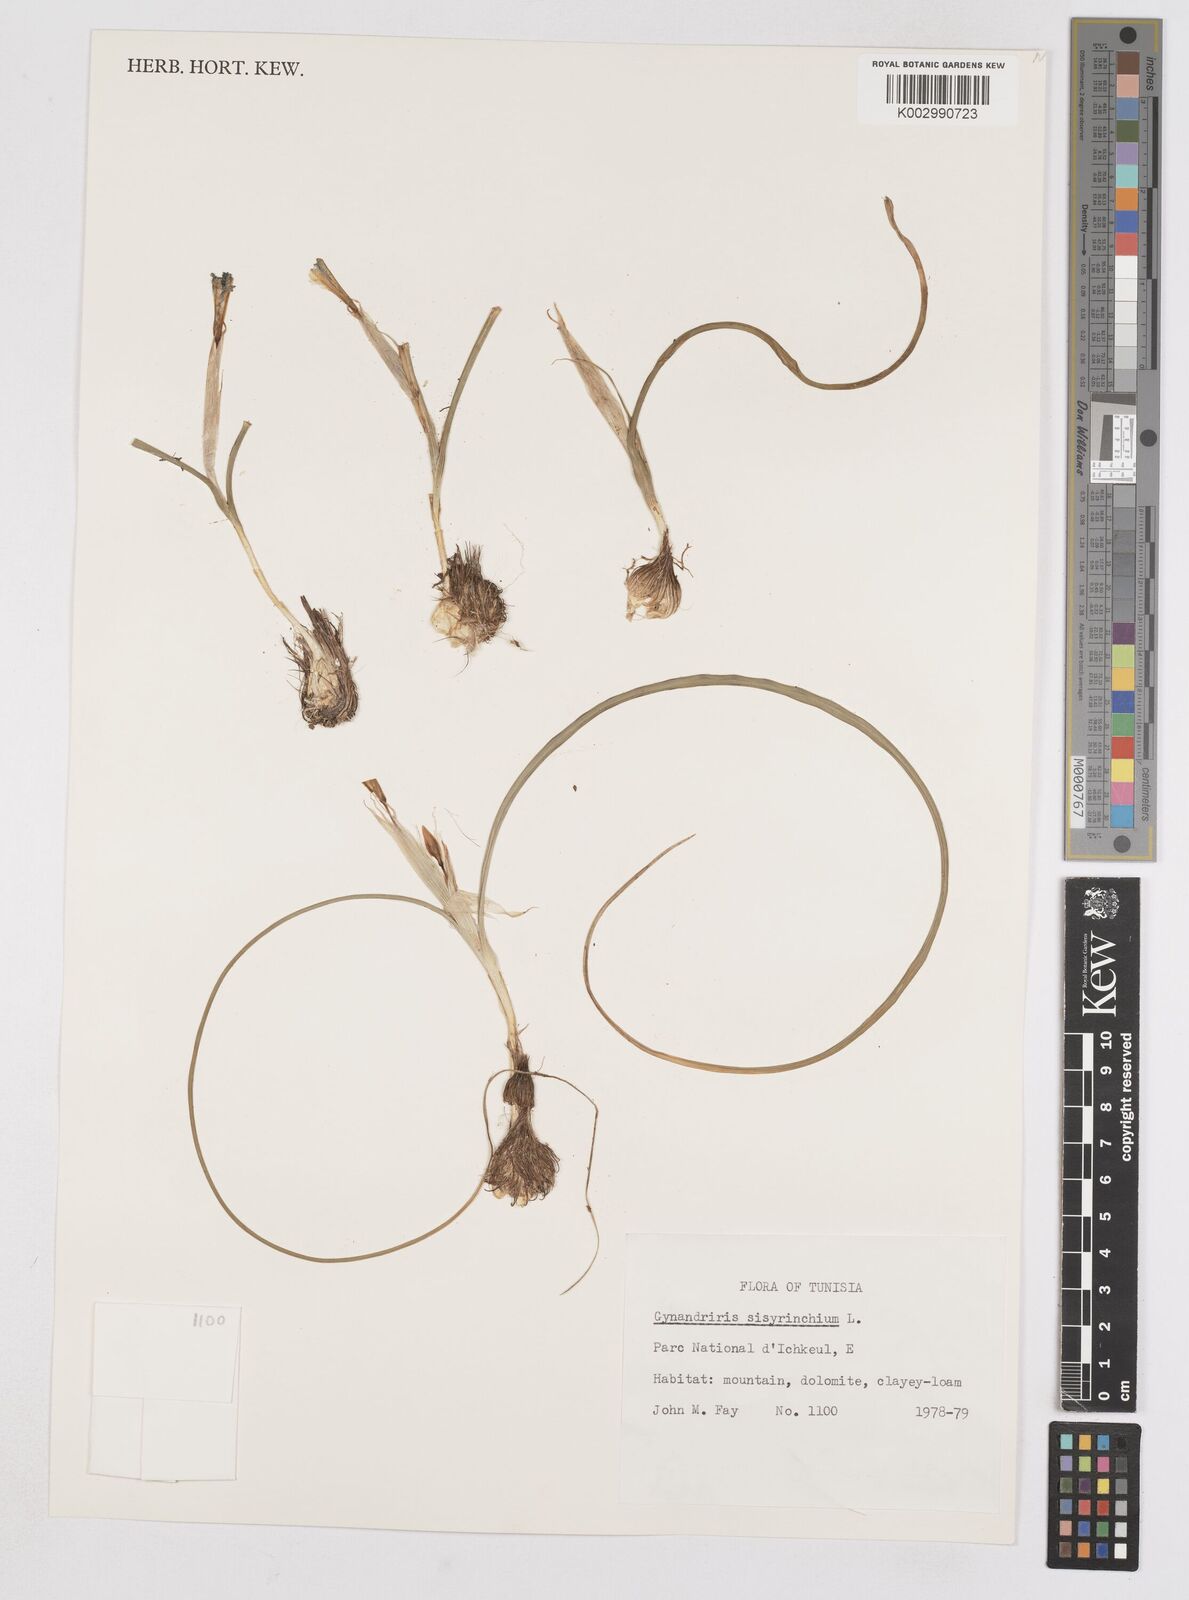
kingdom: Plantae
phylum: Tracheophyta
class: Liliopsida
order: Asparagales
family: Iridaceae
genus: Moraea
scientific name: Moraea sisyrinchium
